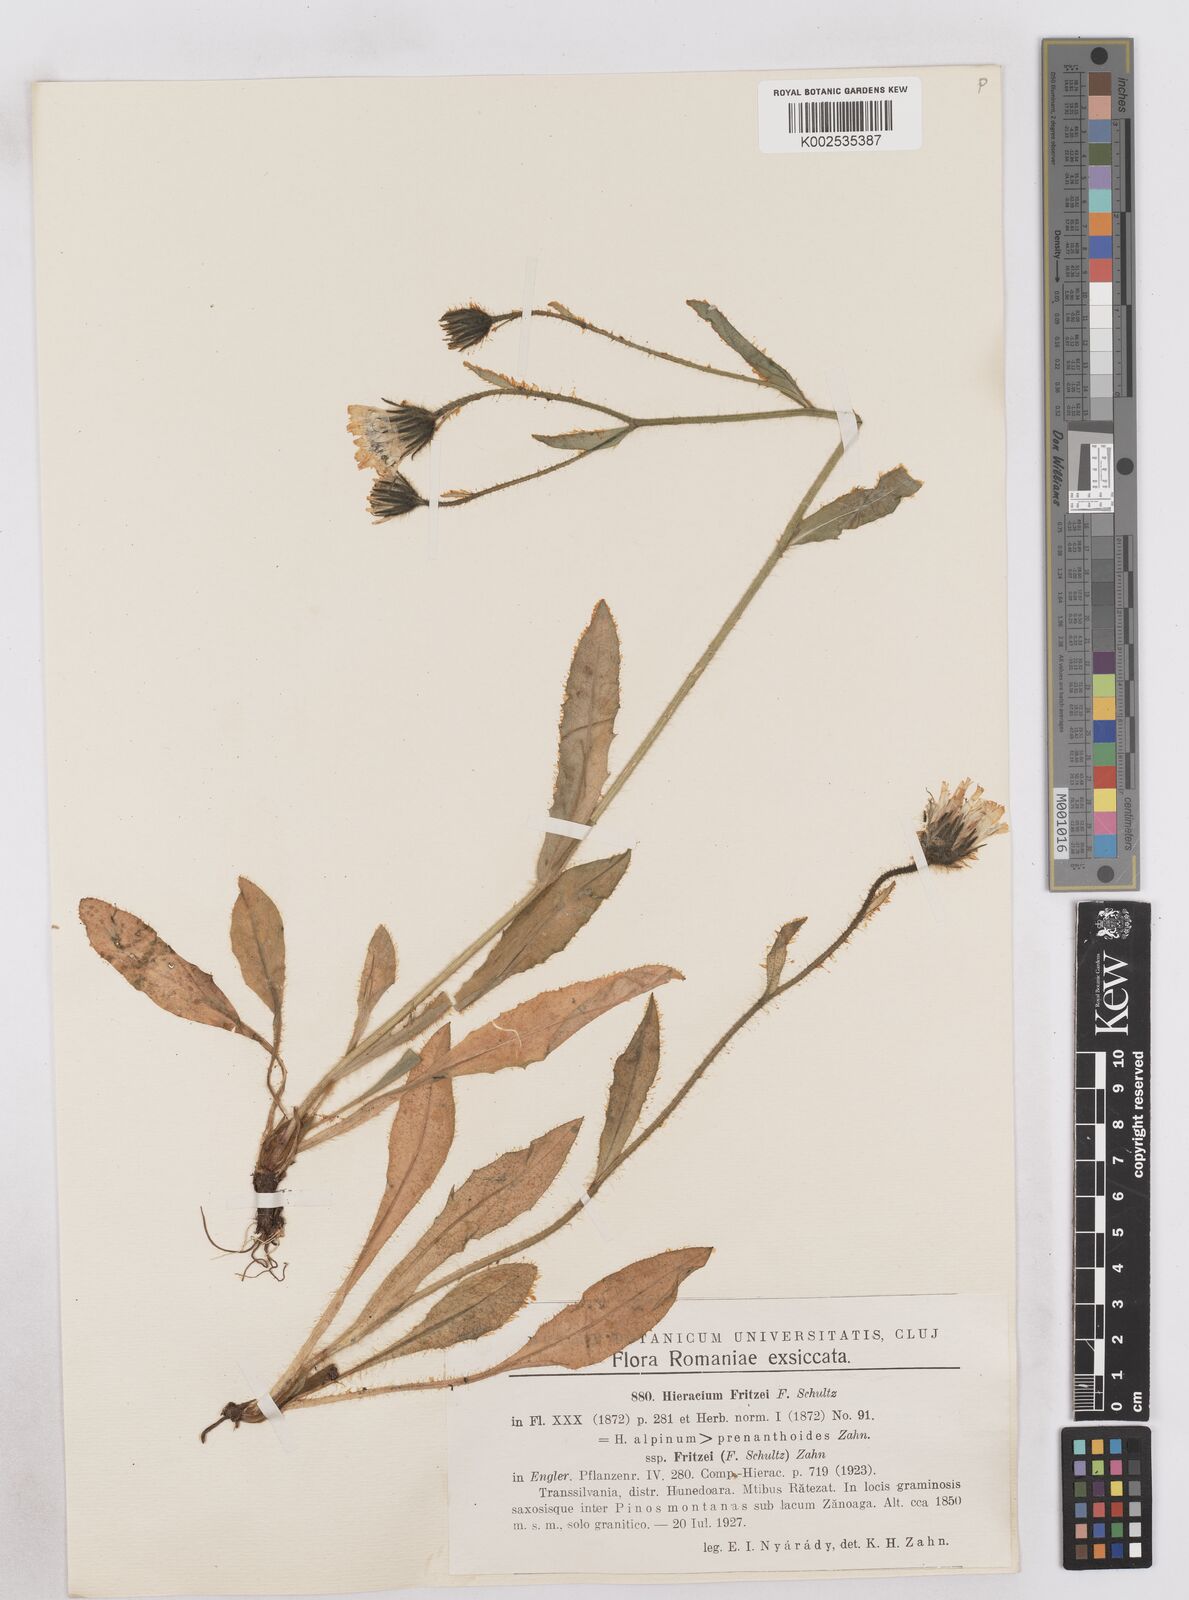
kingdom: Plantae
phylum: Tracheophyta
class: Magnoliopsida
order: Asterales
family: Asteraceae
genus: Hieracium
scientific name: Hieracium fritzei
